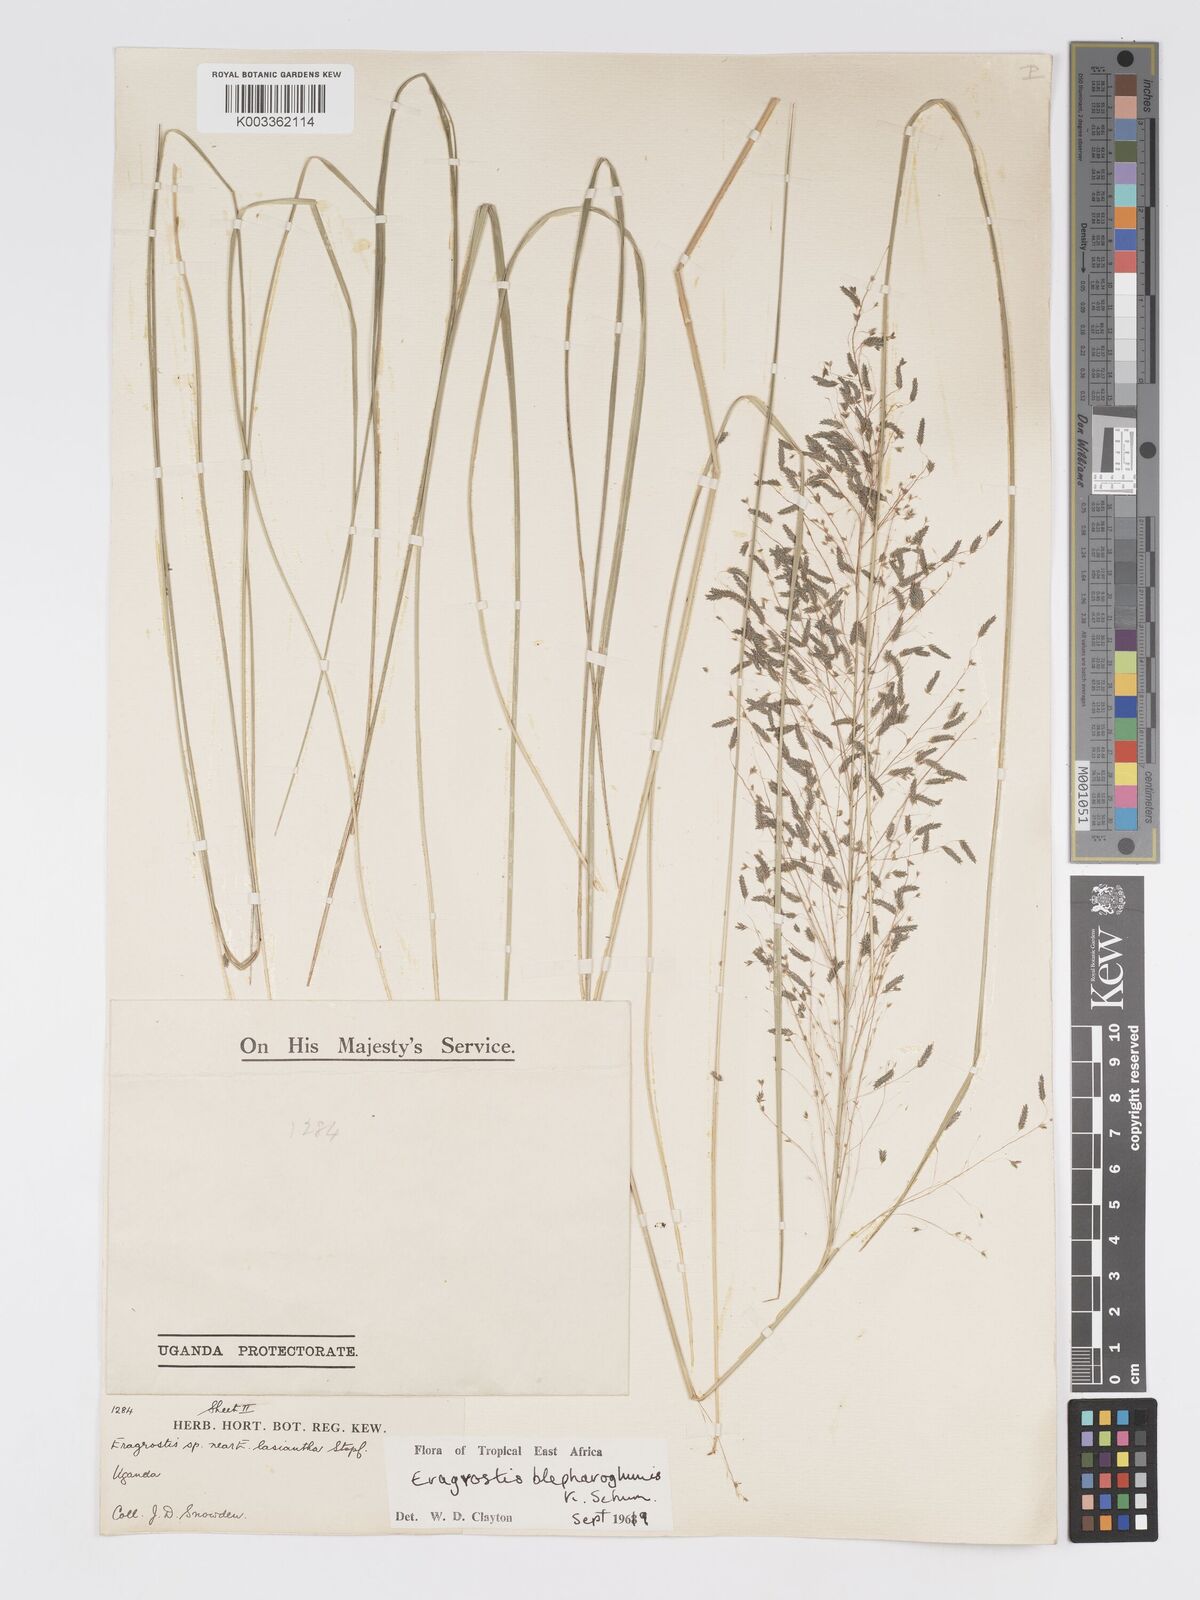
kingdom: Plantae
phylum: Tracheophyta
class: Liliopsida
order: Poales
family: Poaceae
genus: Eragrostis
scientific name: Eragrostis olivacea
